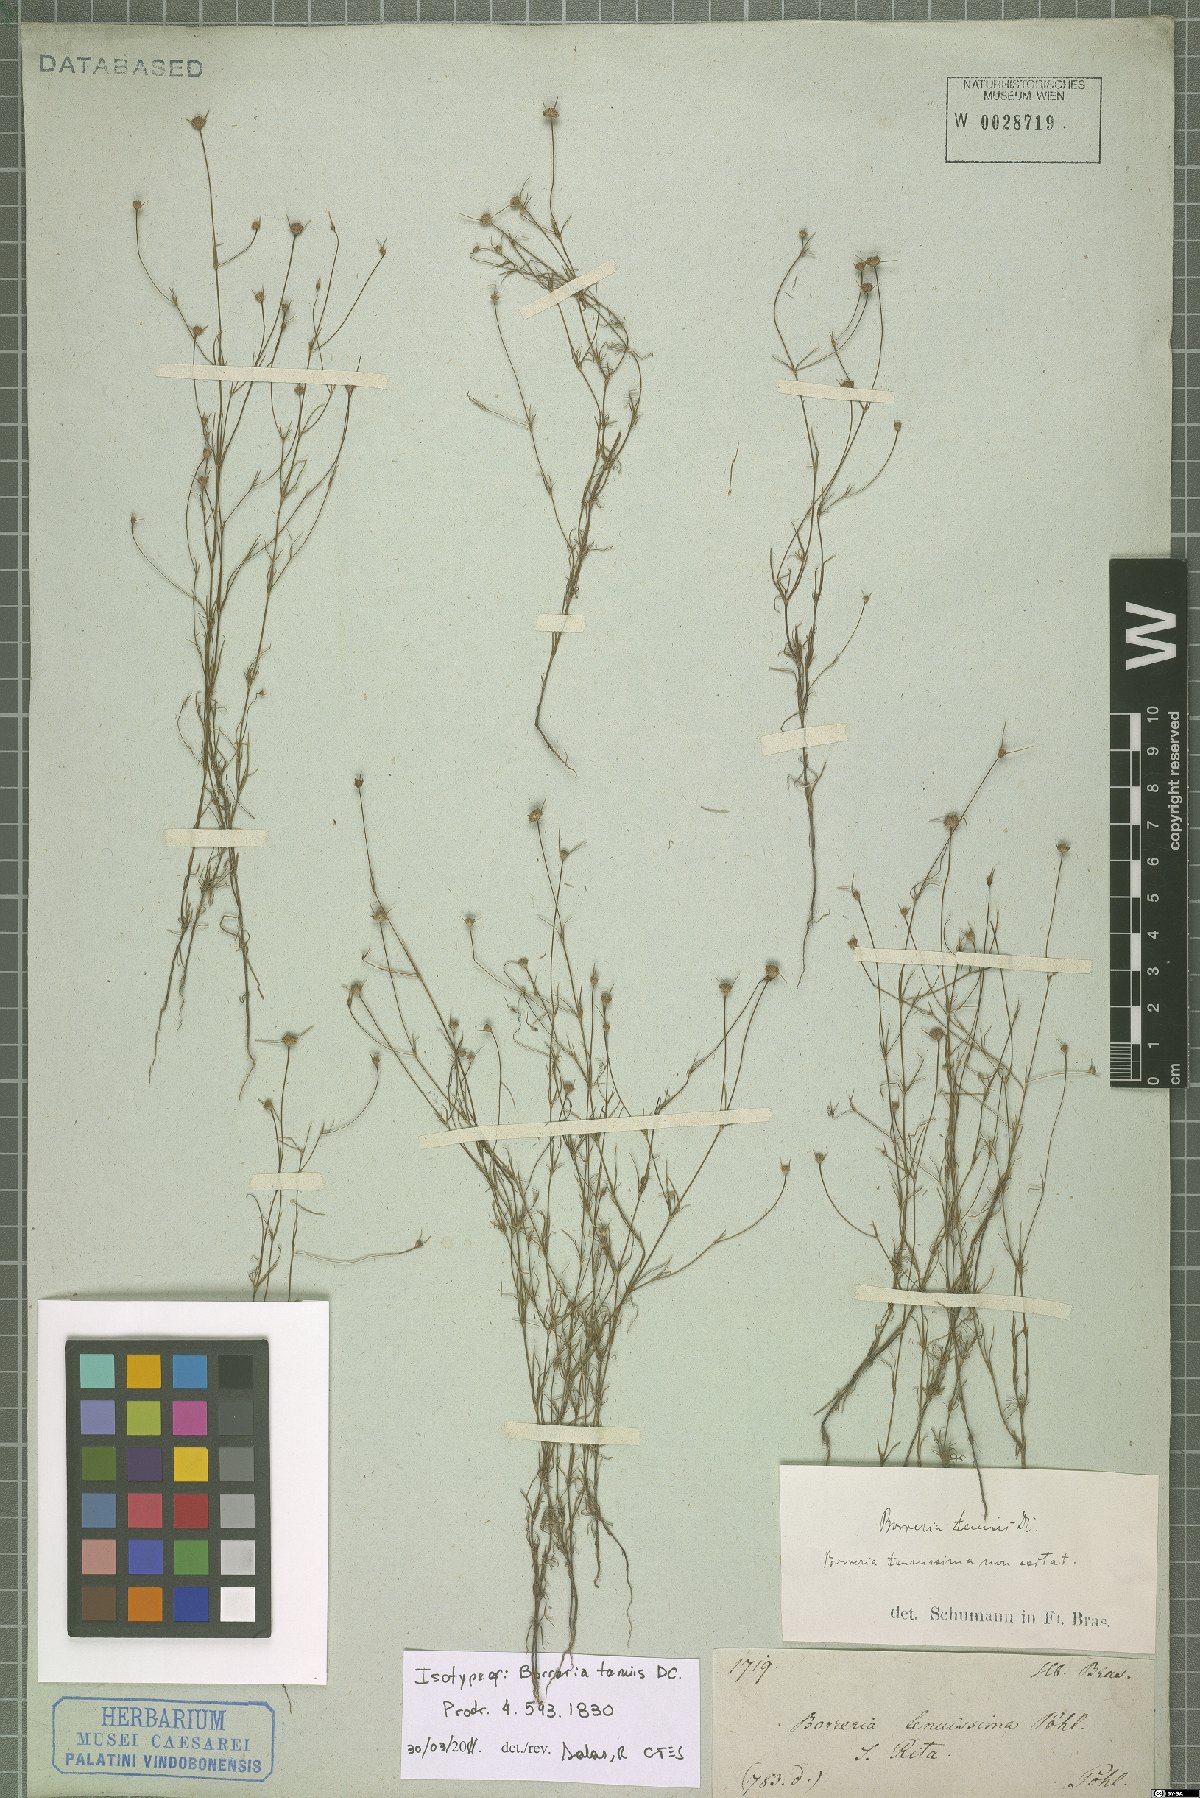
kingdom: Plantae
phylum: Tracheophyta
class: Magnoliopsida
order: Gentianales
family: Rubiaceae
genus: Spermacoce
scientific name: Spermacoce neotenuis
